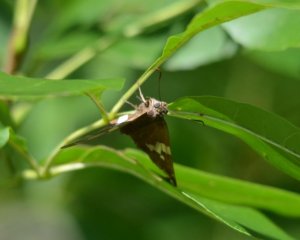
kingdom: Animalia
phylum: Arthropoda
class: Insecta
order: Lepidoptera
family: Hesperiidae
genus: Epargyreus
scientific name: Epargyreus clarus
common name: Silver-spotted Skipper
